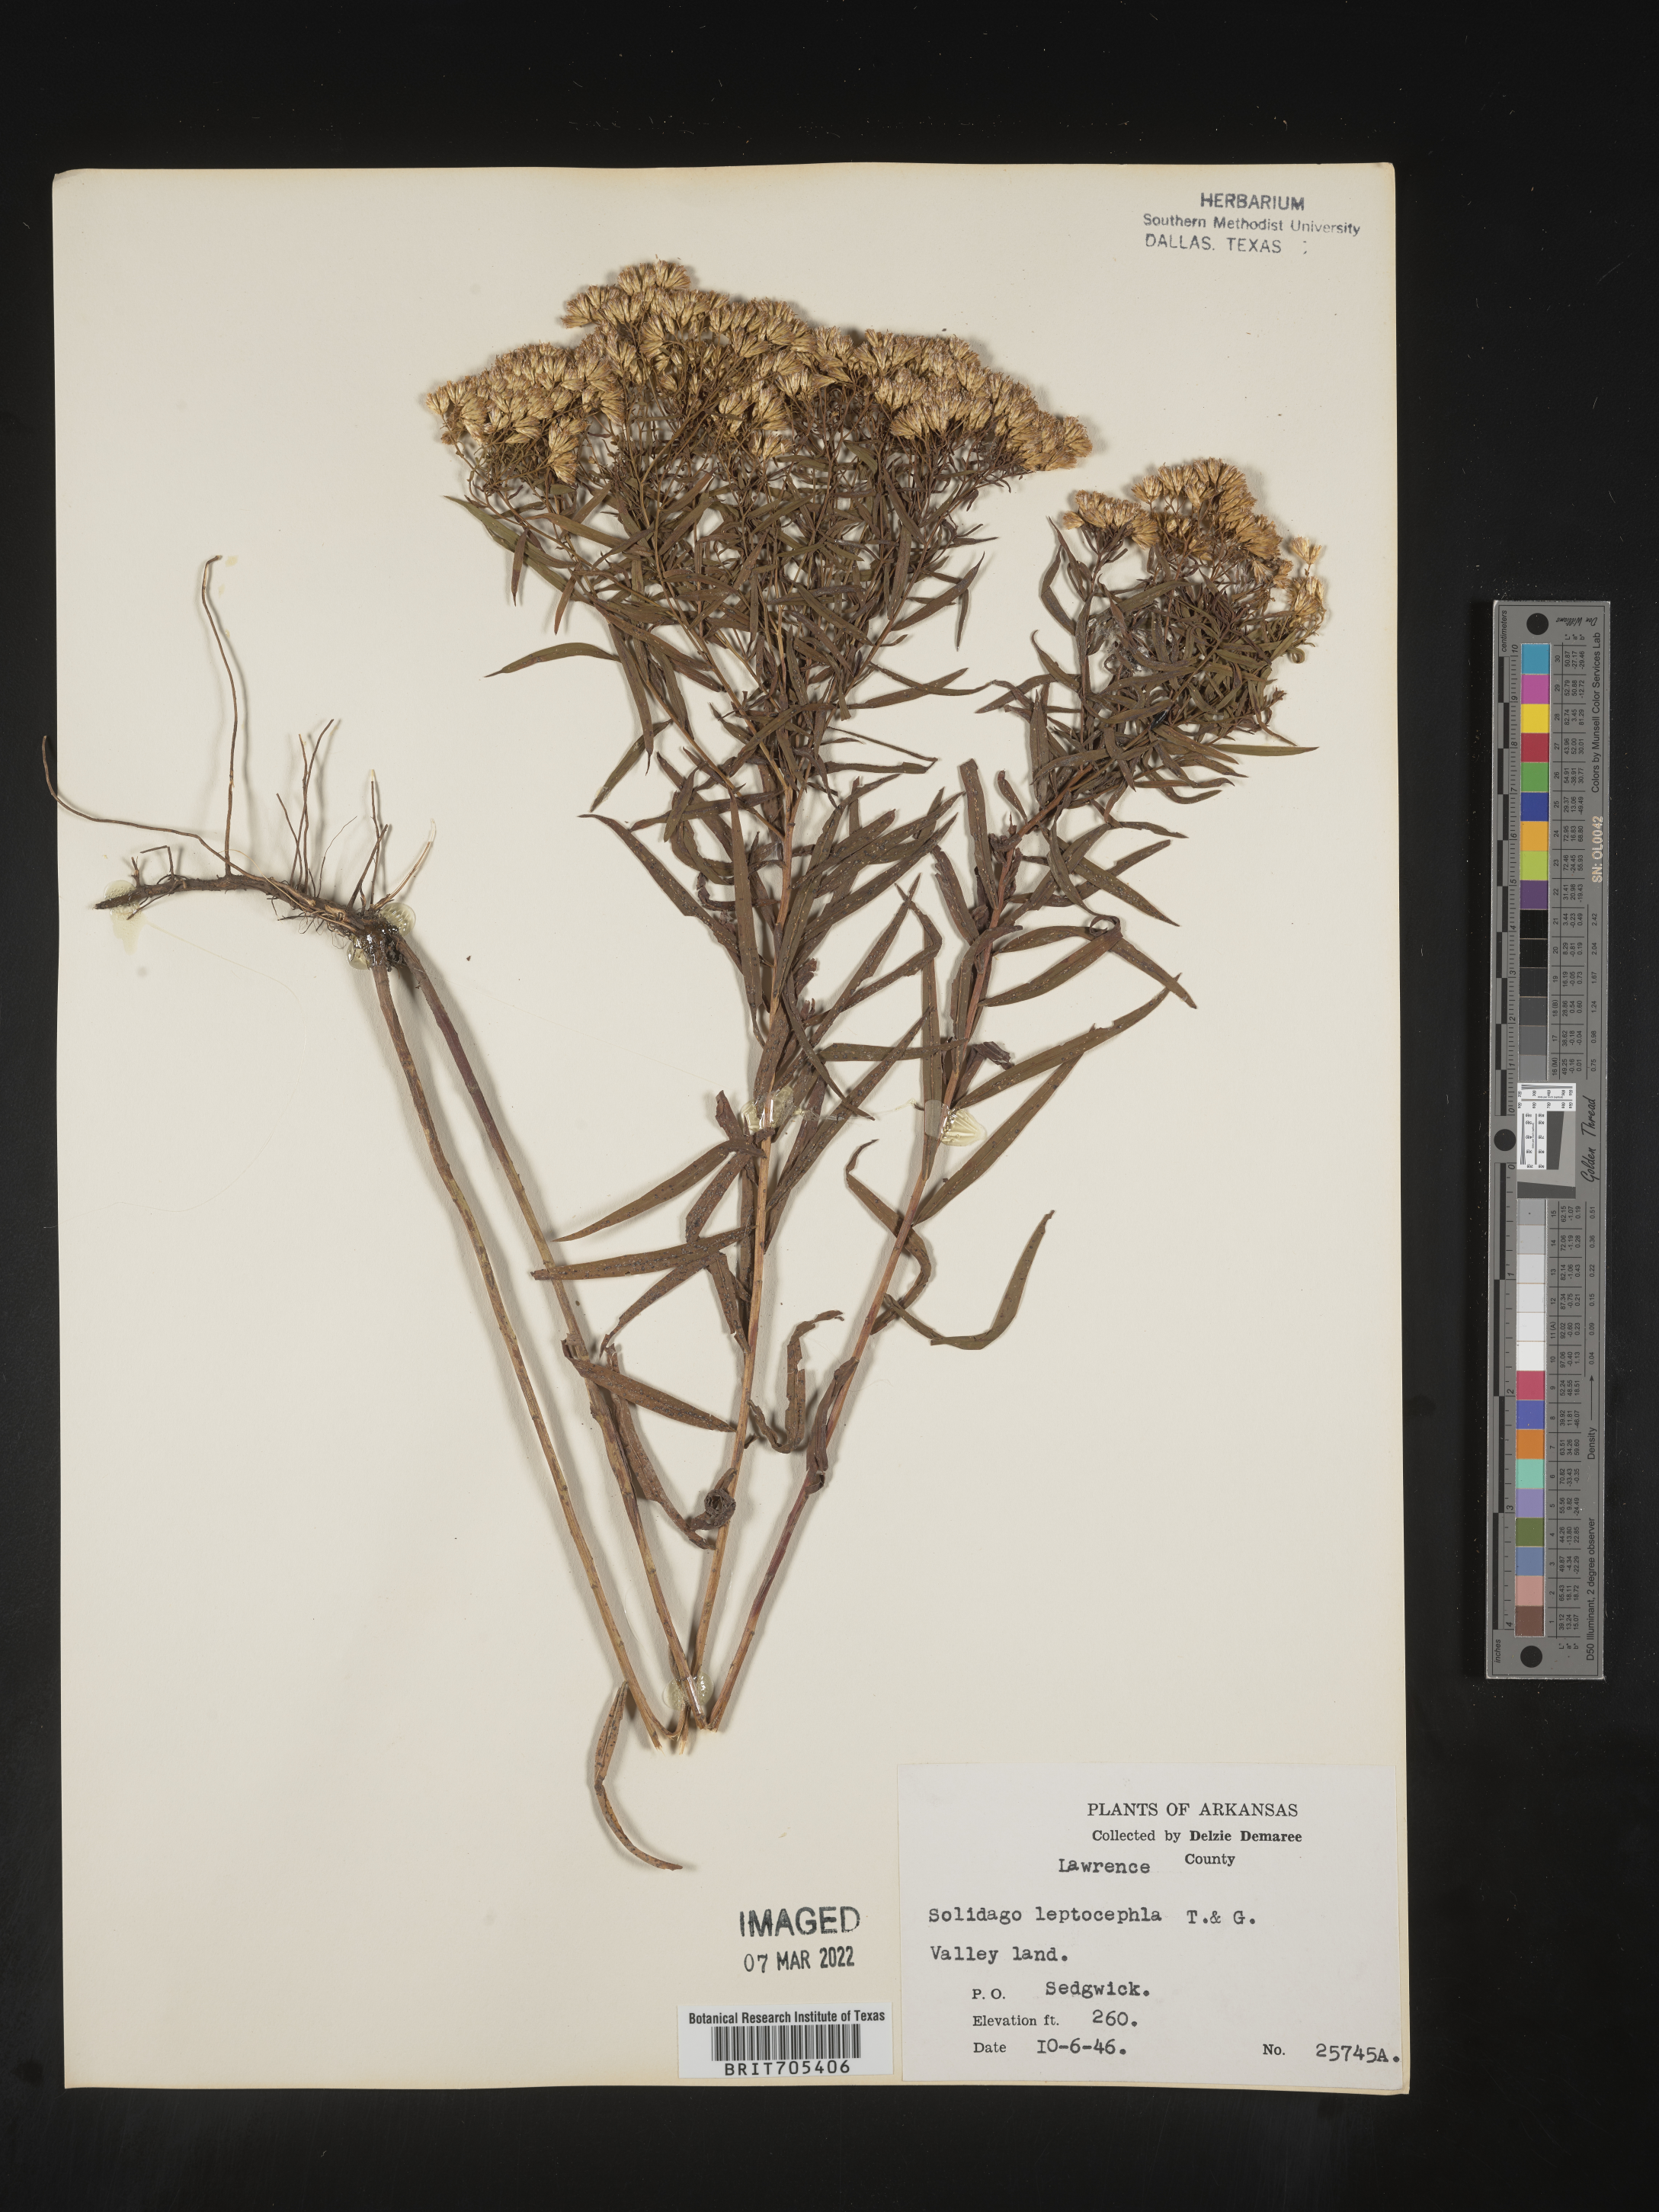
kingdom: Plantae
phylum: Tracheophyta
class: Magnoliopsida
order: Asterales
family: Asteraceae
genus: Euthamia
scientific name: Euthamia leptocephala
